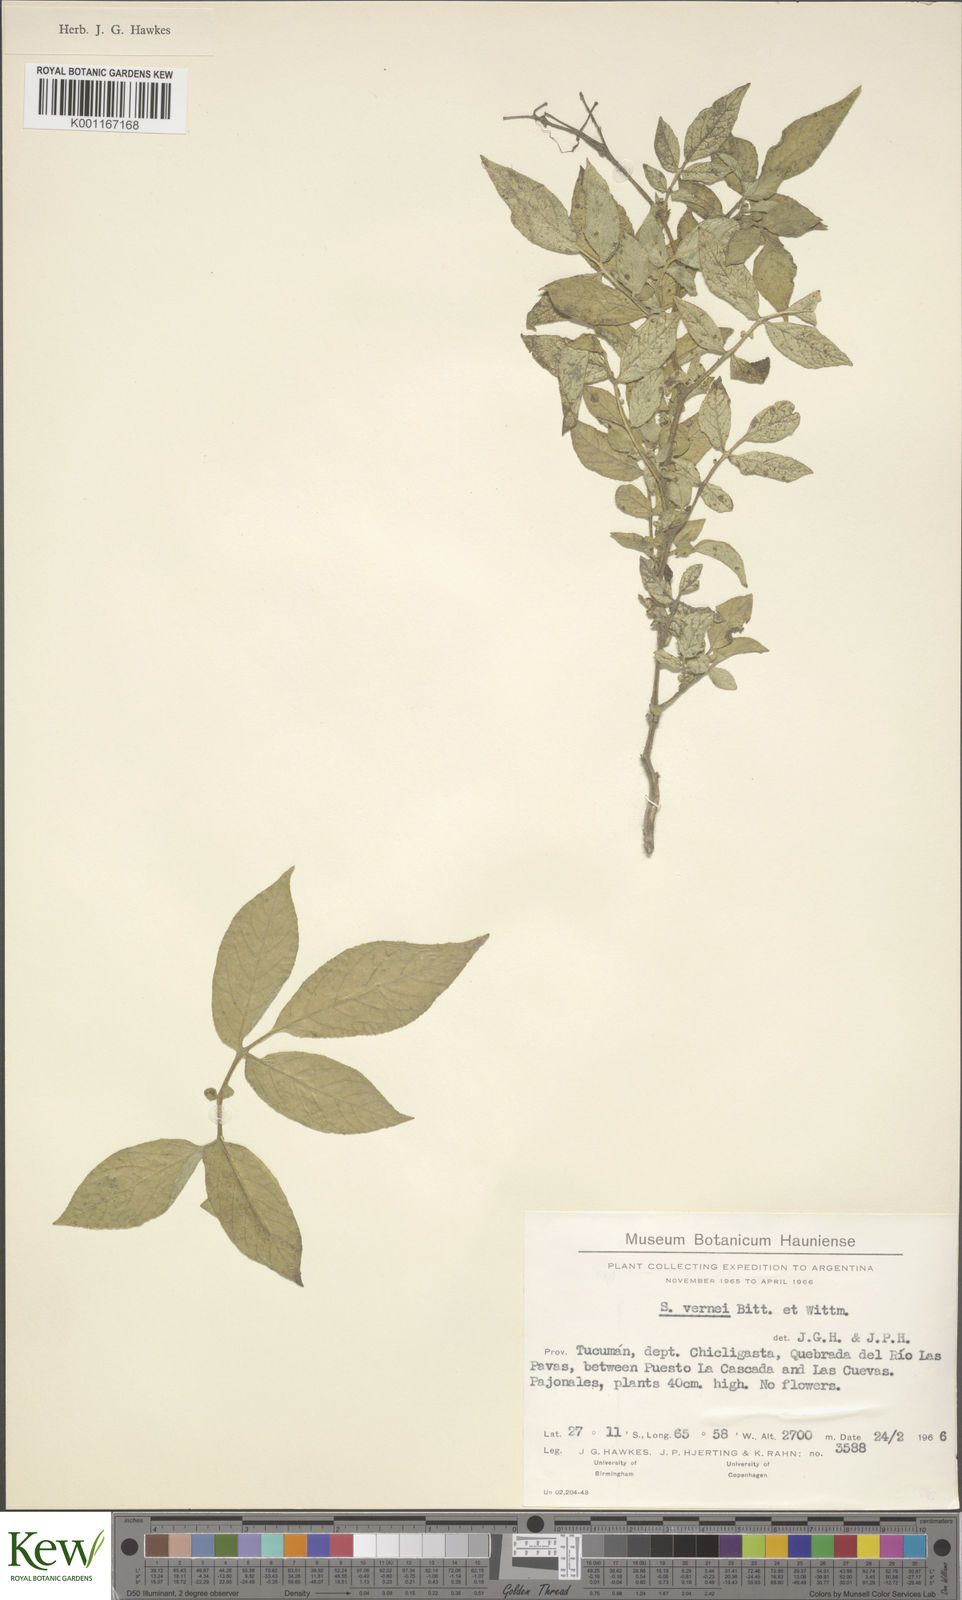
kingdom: Plantae
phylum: Tracheophyta
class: Magnoliopsida
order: Solanales
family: Solanaceae
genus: Solanum
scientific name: Solanum vernei
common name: Purple potato
